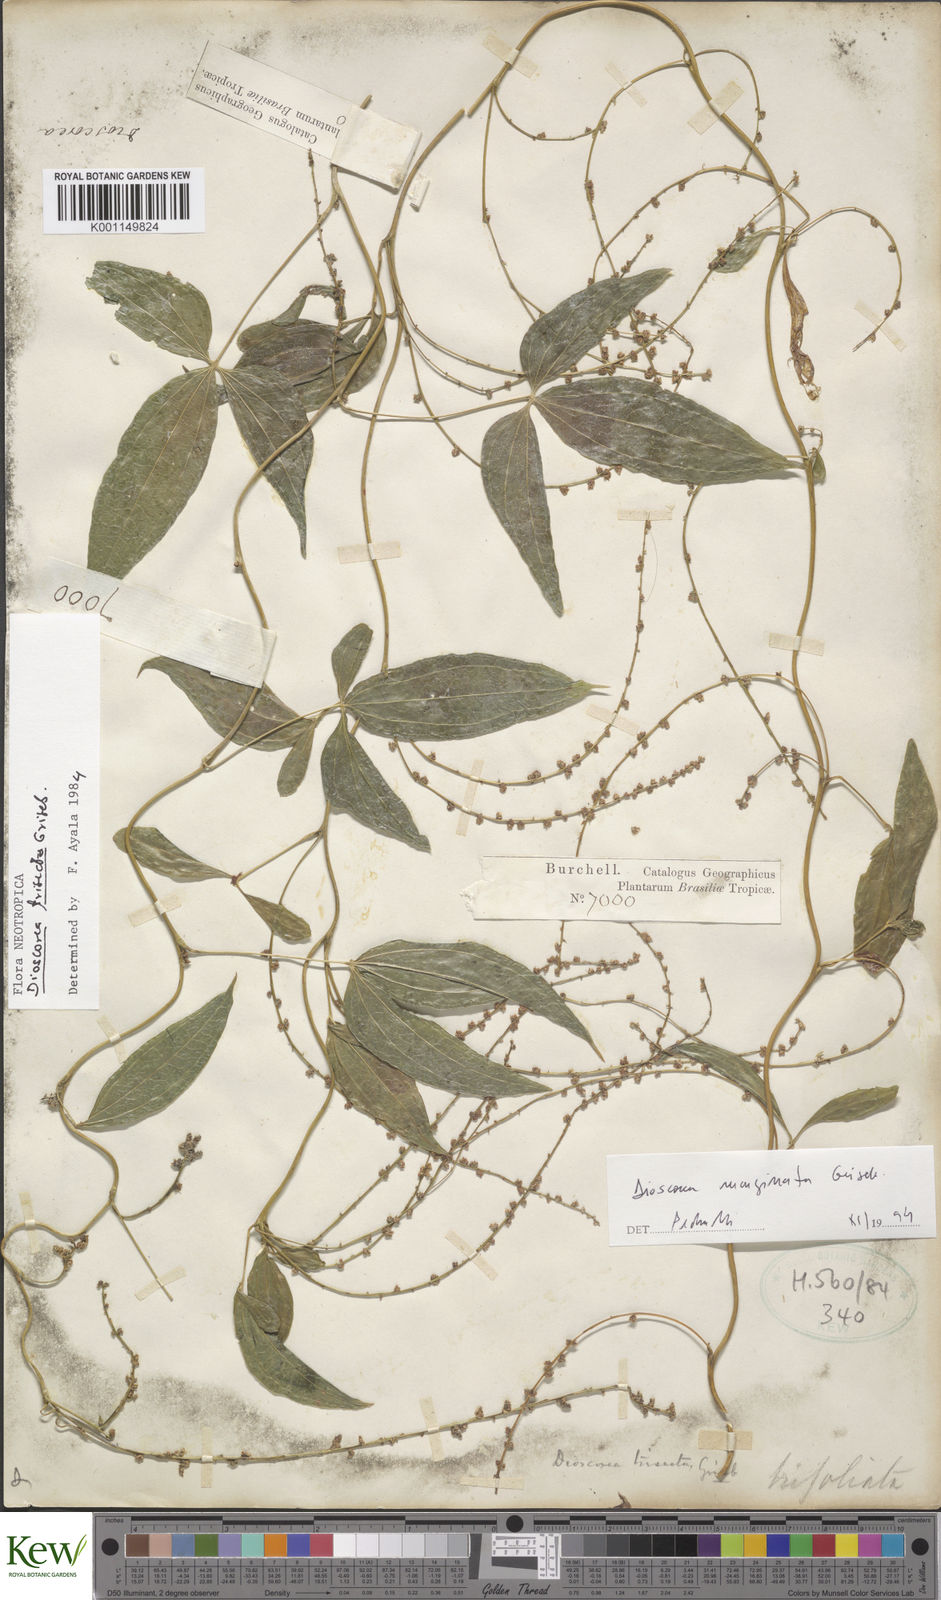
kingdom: Plantae
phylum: Tracheophyta
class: Liliopsida
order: Dioscoreales
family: Dioscoreaceae
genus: Dioscorea
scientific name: Dioscorea trisecta
